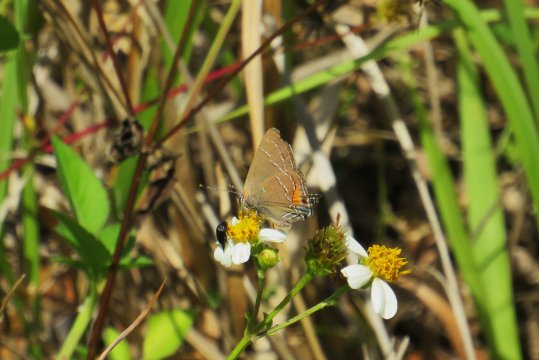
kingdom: Animalia
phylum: Arthropoda
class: Insecta
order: Lepidoptera
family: Lycaenidae
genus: Fixsenia
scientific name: Fixsenia favonius
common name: Oak Hairstreak
